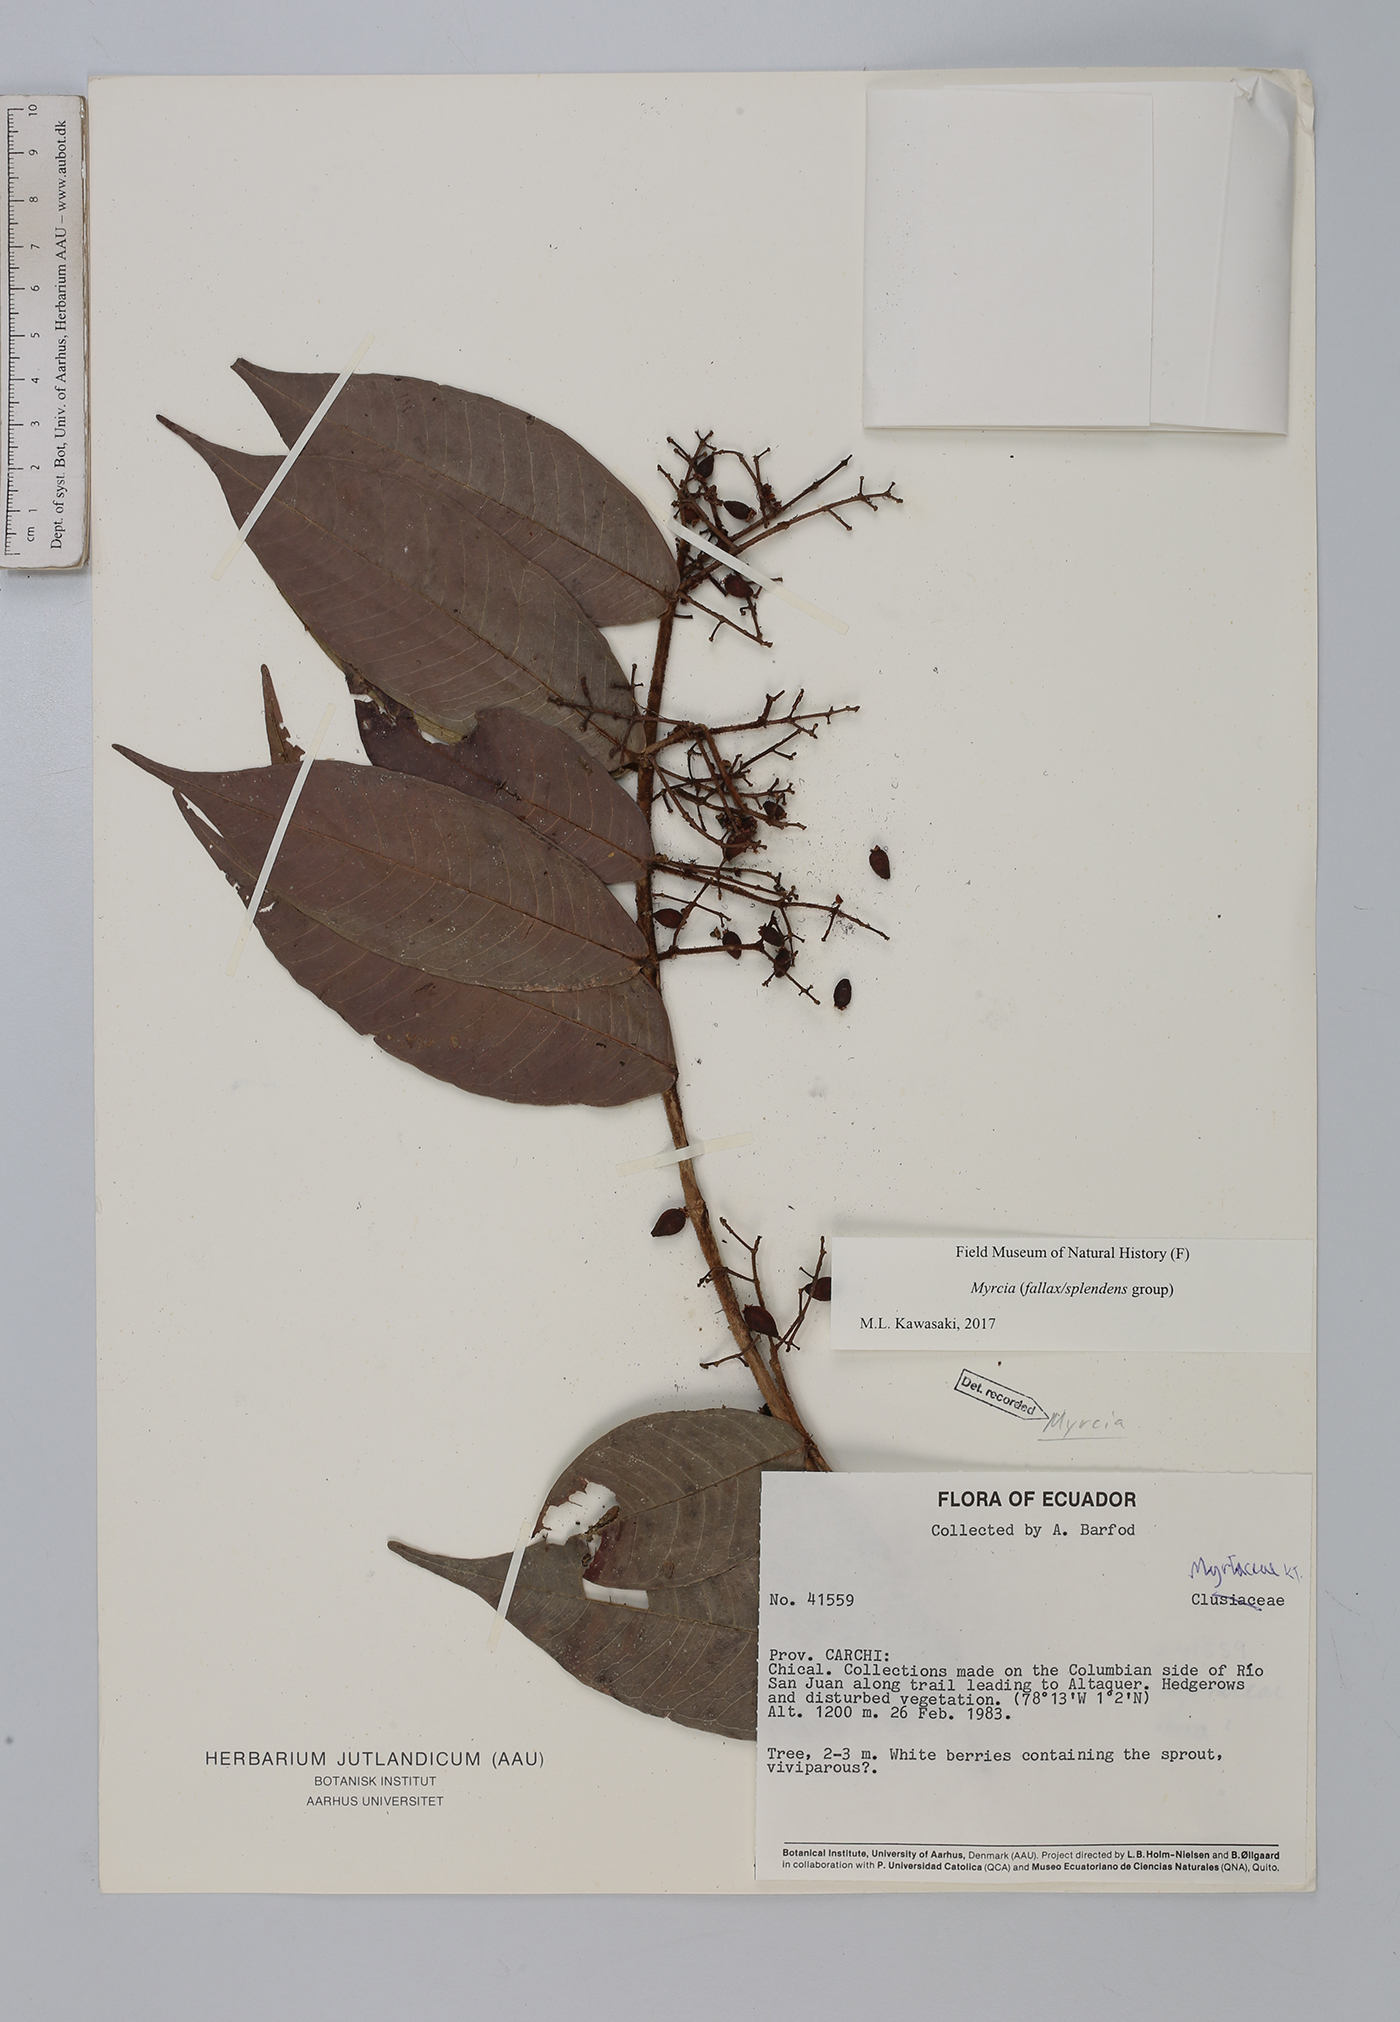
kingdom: Plantae
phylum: Tracheophyta
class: Magnoliopsida
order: Myrtales
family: Myrtaceae
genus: Myrcia
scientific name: Myrcia
